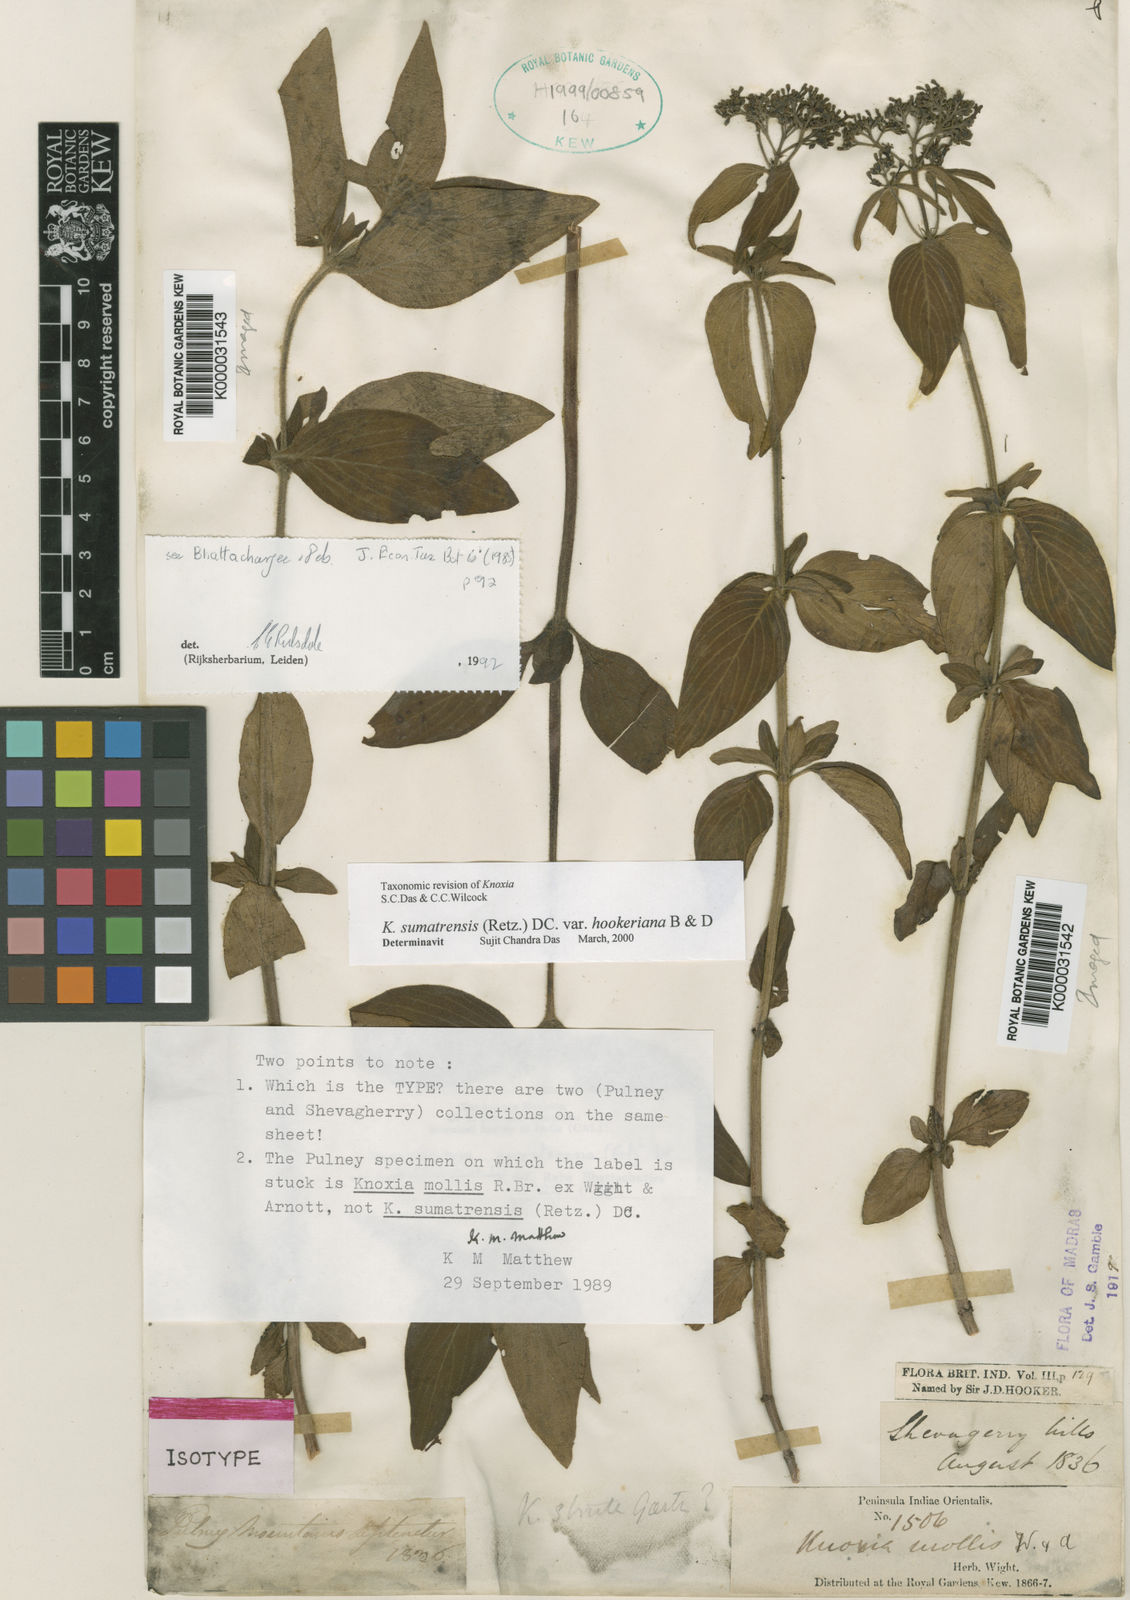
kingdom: Plantae
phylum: Tracheophyta
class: Magnoliopsida
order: Gentianales
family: Rubiaceae
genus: Knoxia
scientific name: Knoxia hookeri
